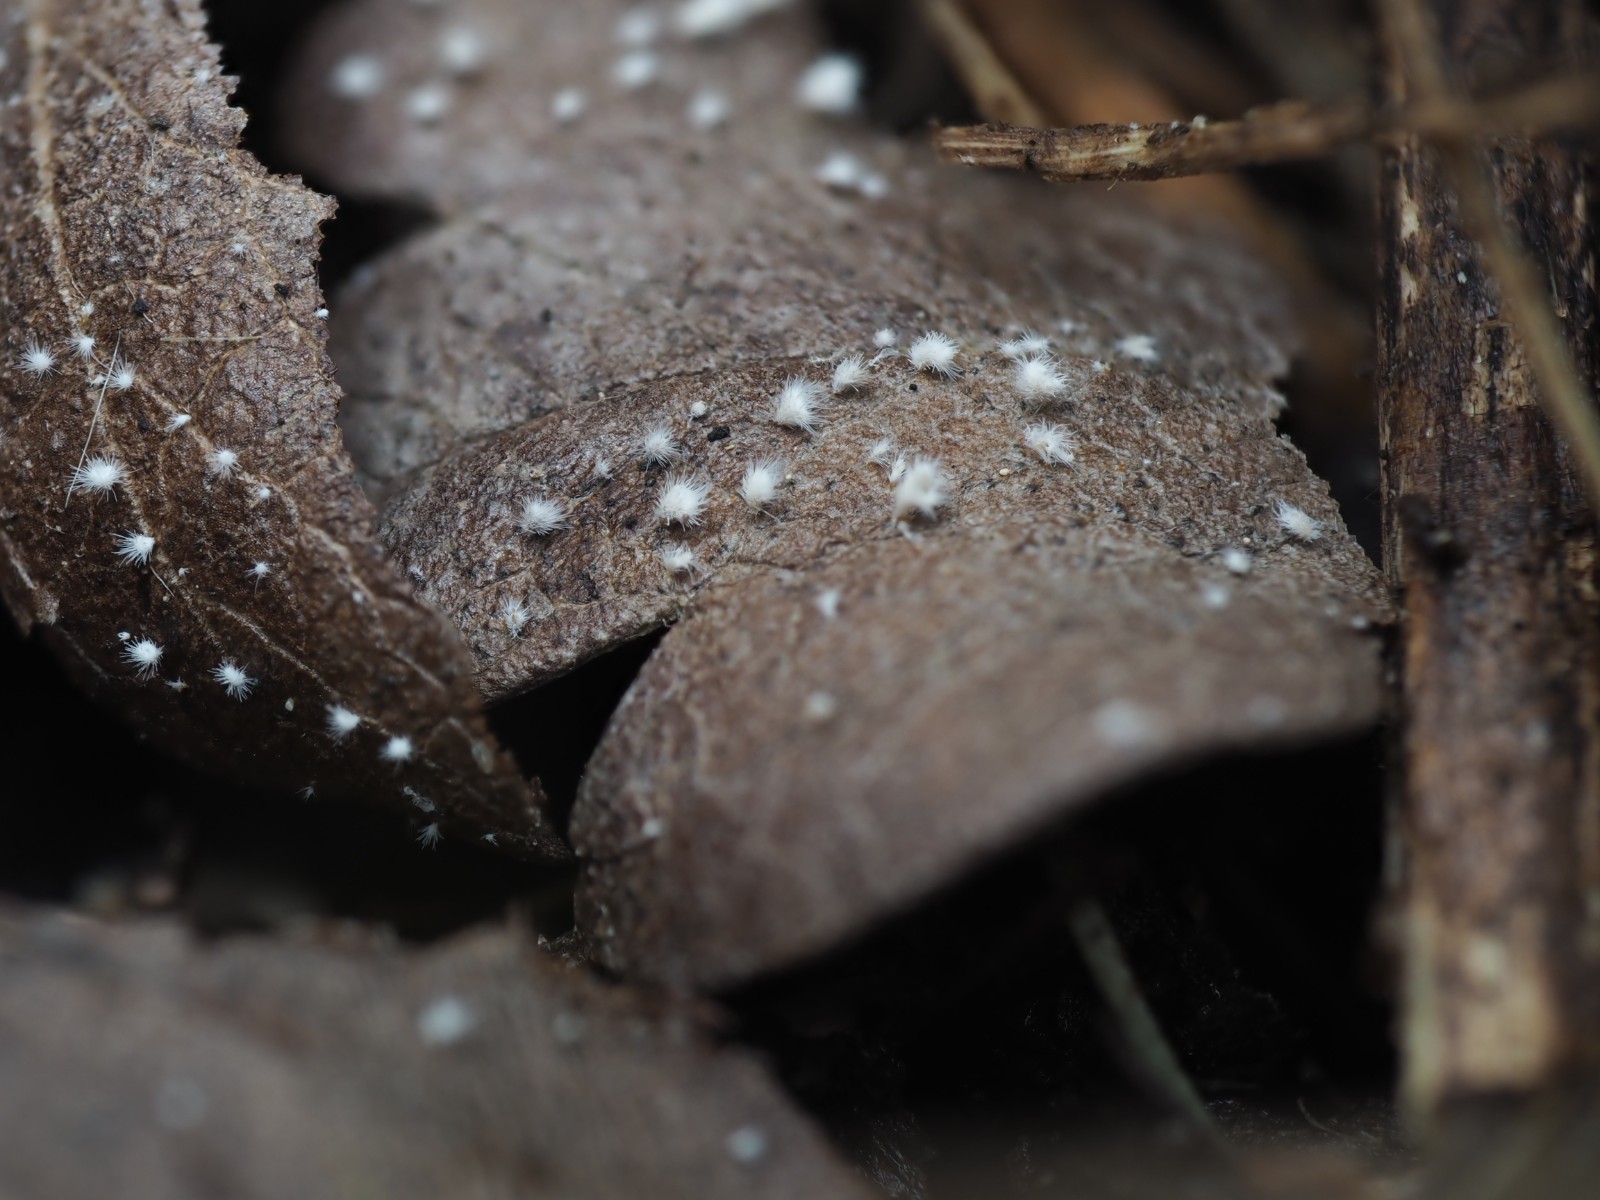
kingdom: Fungi
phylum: Basidiomycota
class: Agaricomycetes
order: Agaricales
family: Niaceae
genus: Flagelloscypha
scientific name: Flagelloscypha niveola
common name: pjusket hængeskål
